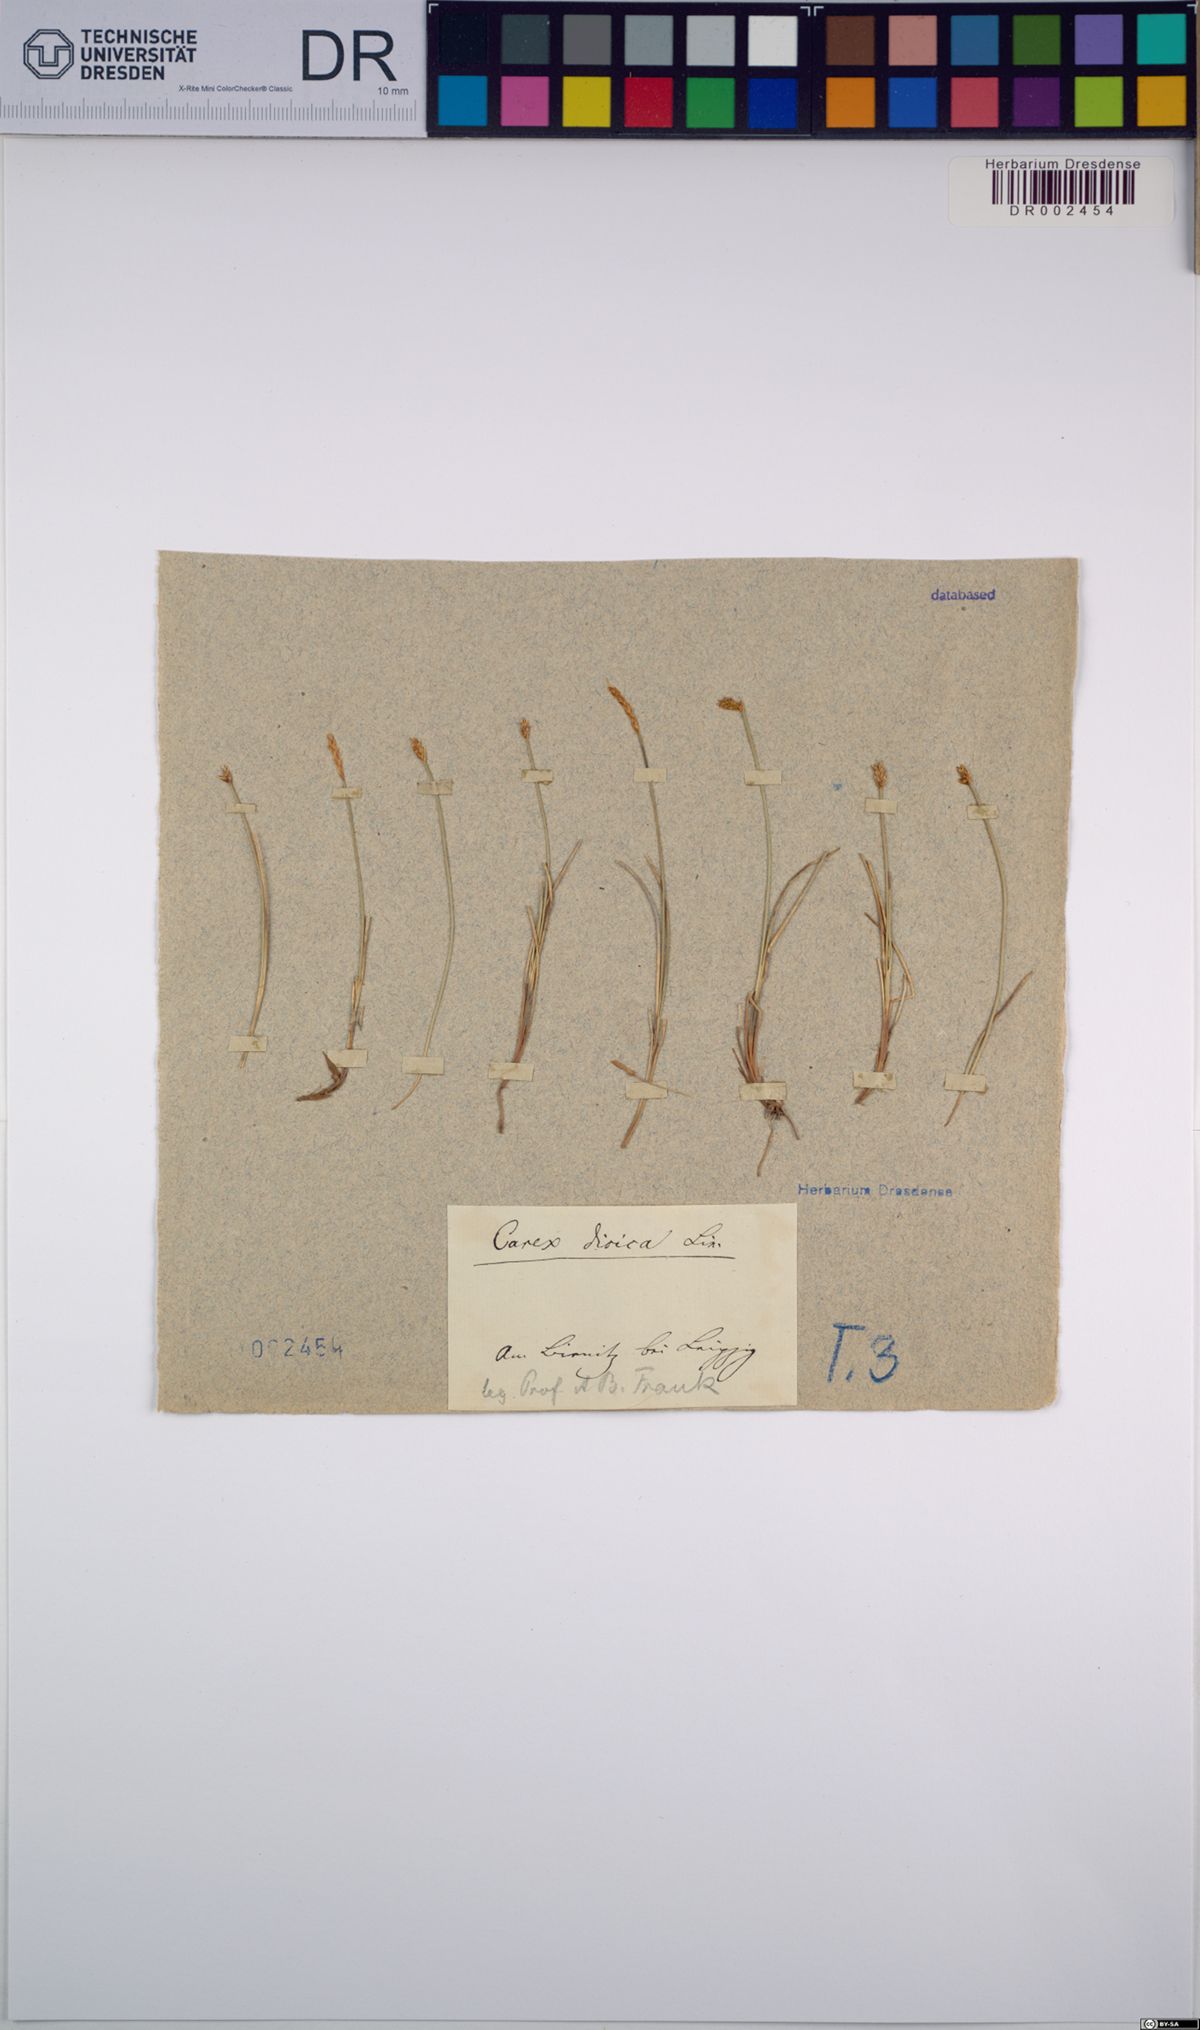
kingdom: Plantae
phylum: Tracheophyta
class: Liliopsida
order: Poales
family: Cyperaceae
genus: Carex
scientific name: Carex dioica
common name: Dioecious sedge
